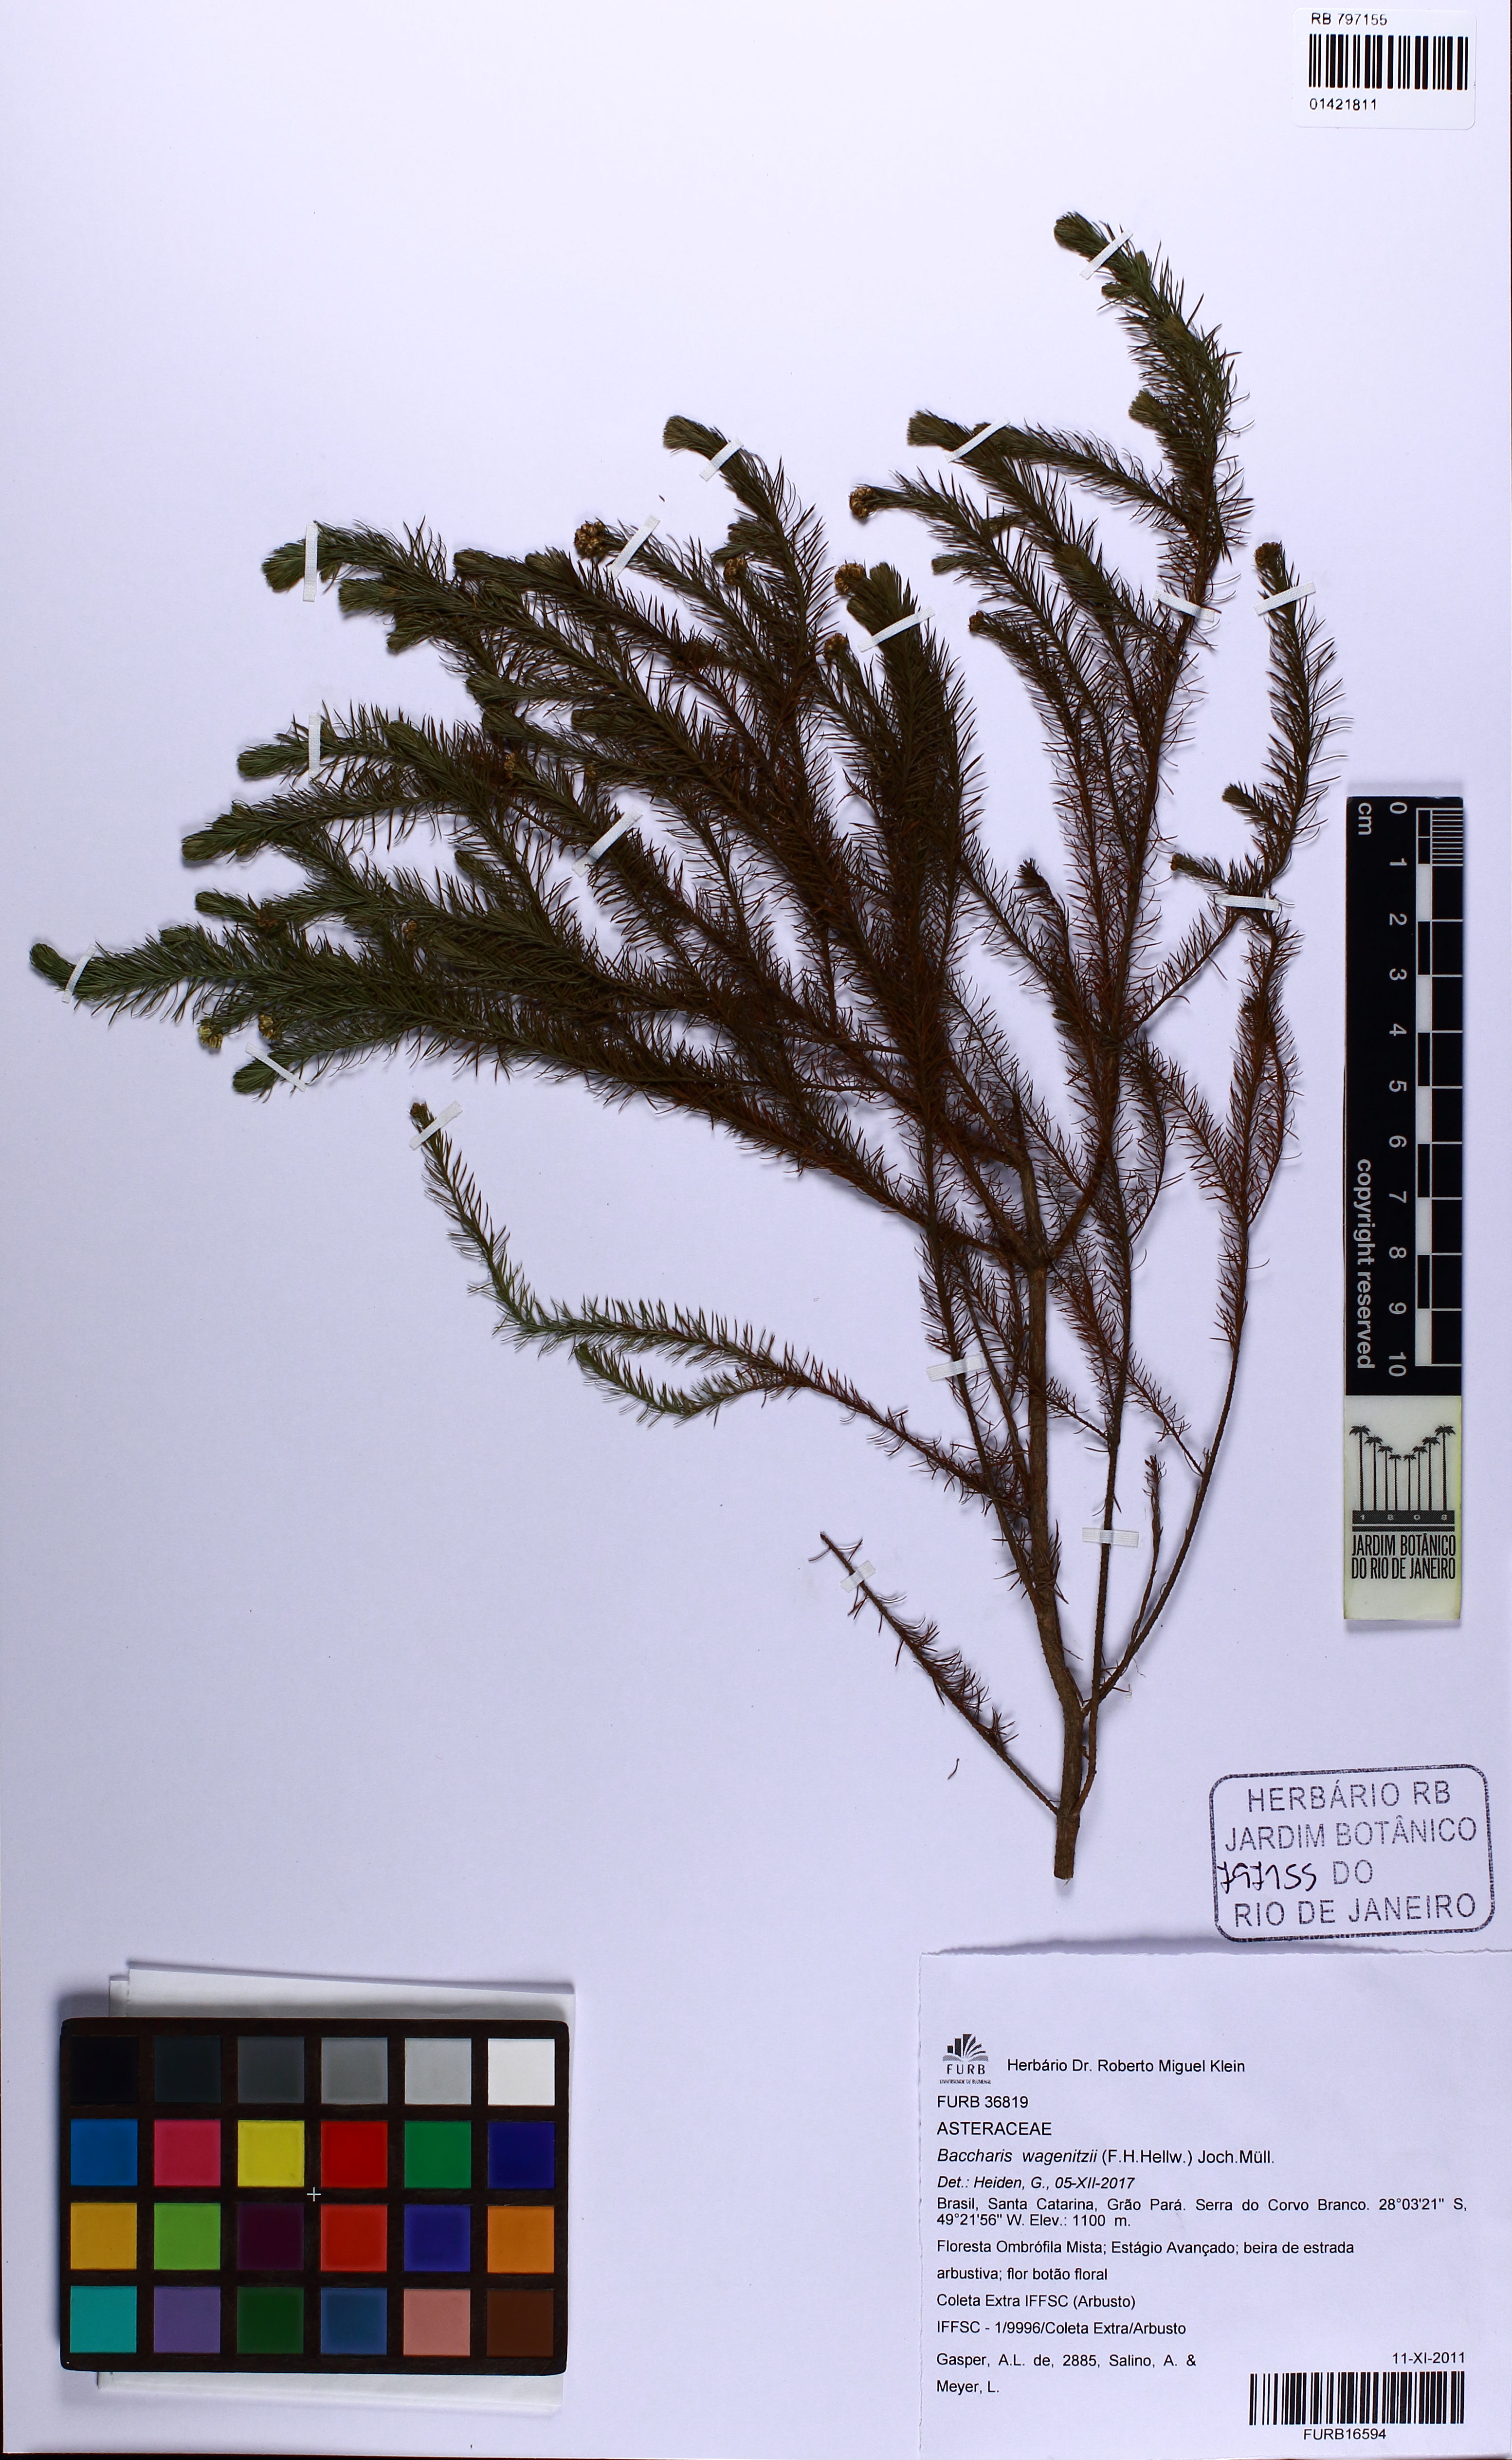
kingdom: Plantae
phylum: Tracheophyta
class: Magnoliopsida
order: Asterales
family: Asteraceae
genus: Baccharis
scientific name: Baccharis wagenitzii
